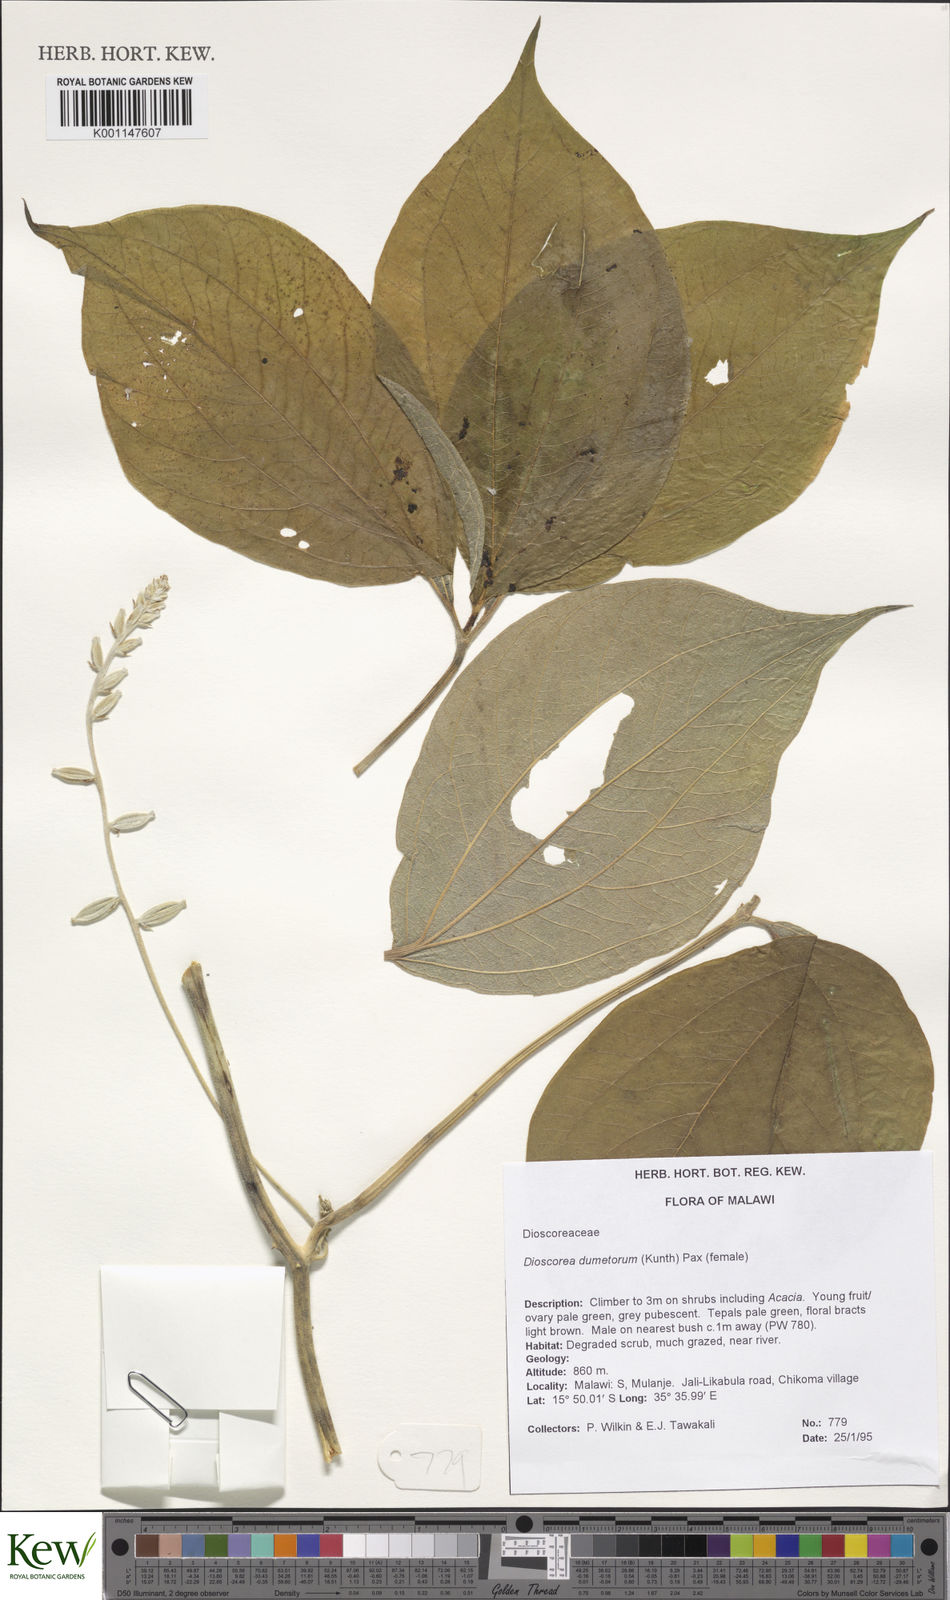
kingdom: Plantae
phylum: Tracheophyta
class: Liliopsida
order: Dioscoreales
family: Dioscoreaceae
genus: Dioscorea
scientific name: Dioscorea dumetorum
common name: African bitter yam
